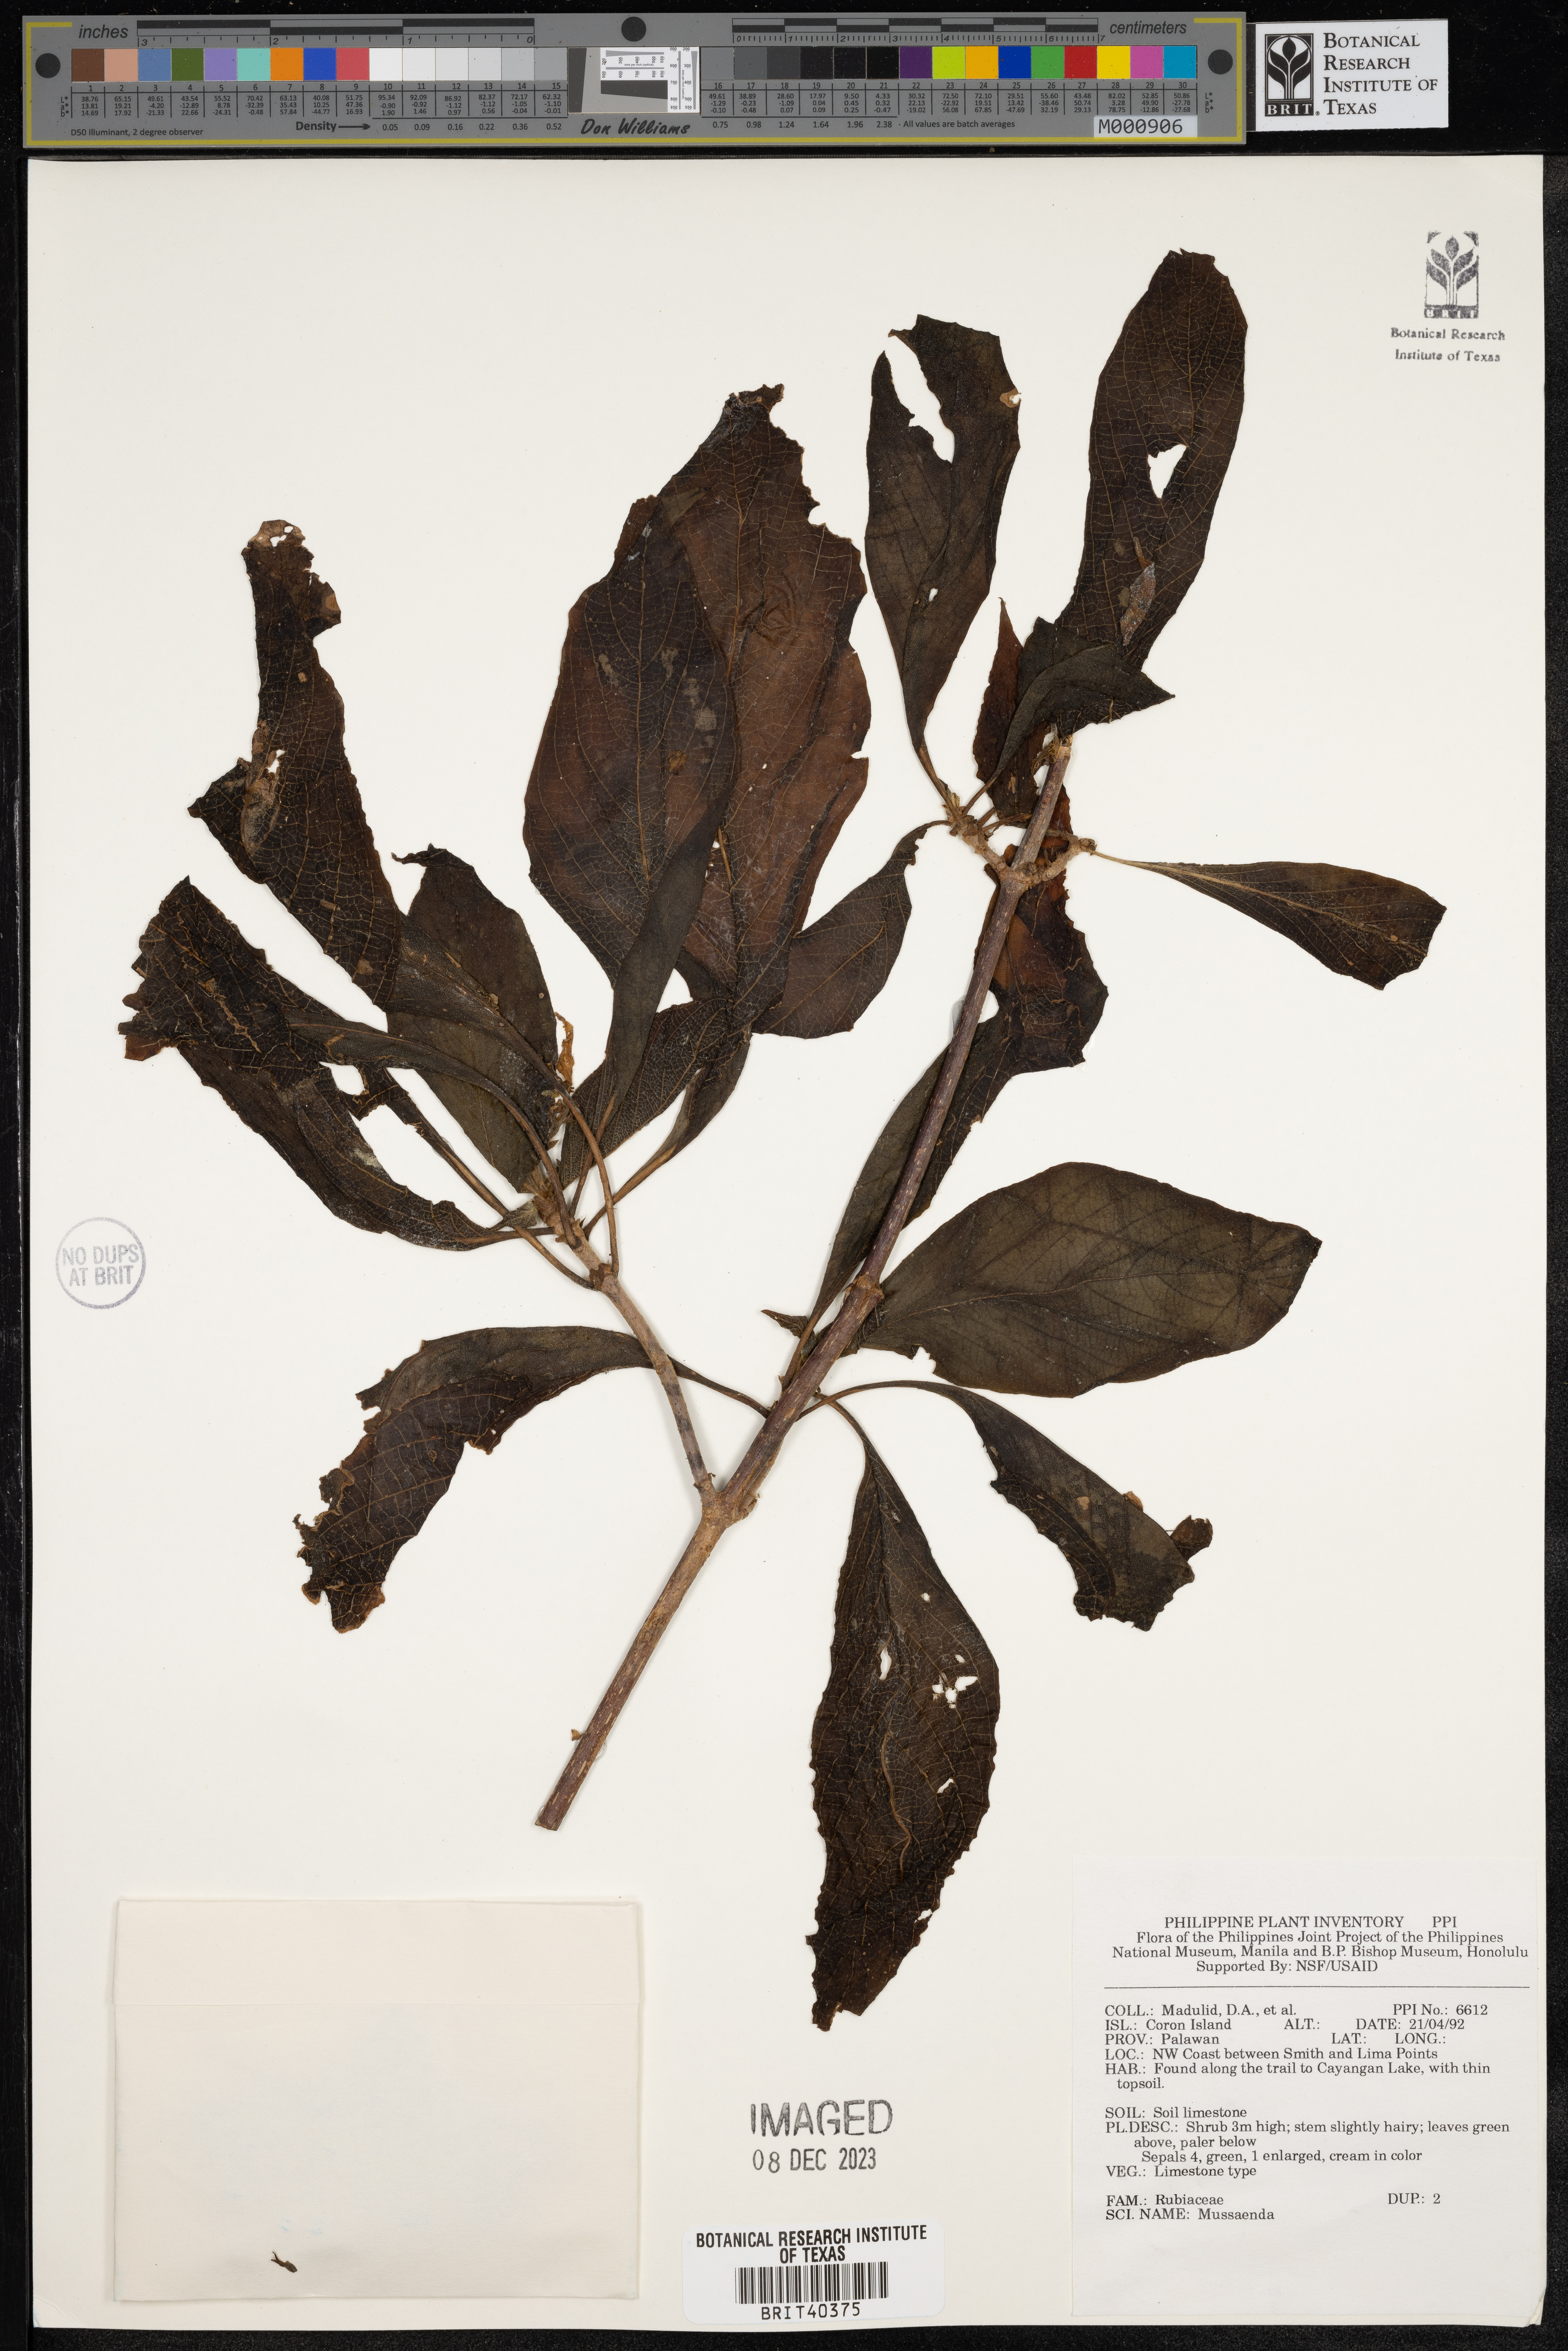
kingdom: Plantae
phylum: Tracheophyta
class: Magnoliopsida
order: Gentianales
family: Rubiaceae
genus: Mussaenda
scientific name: Mussaenda
